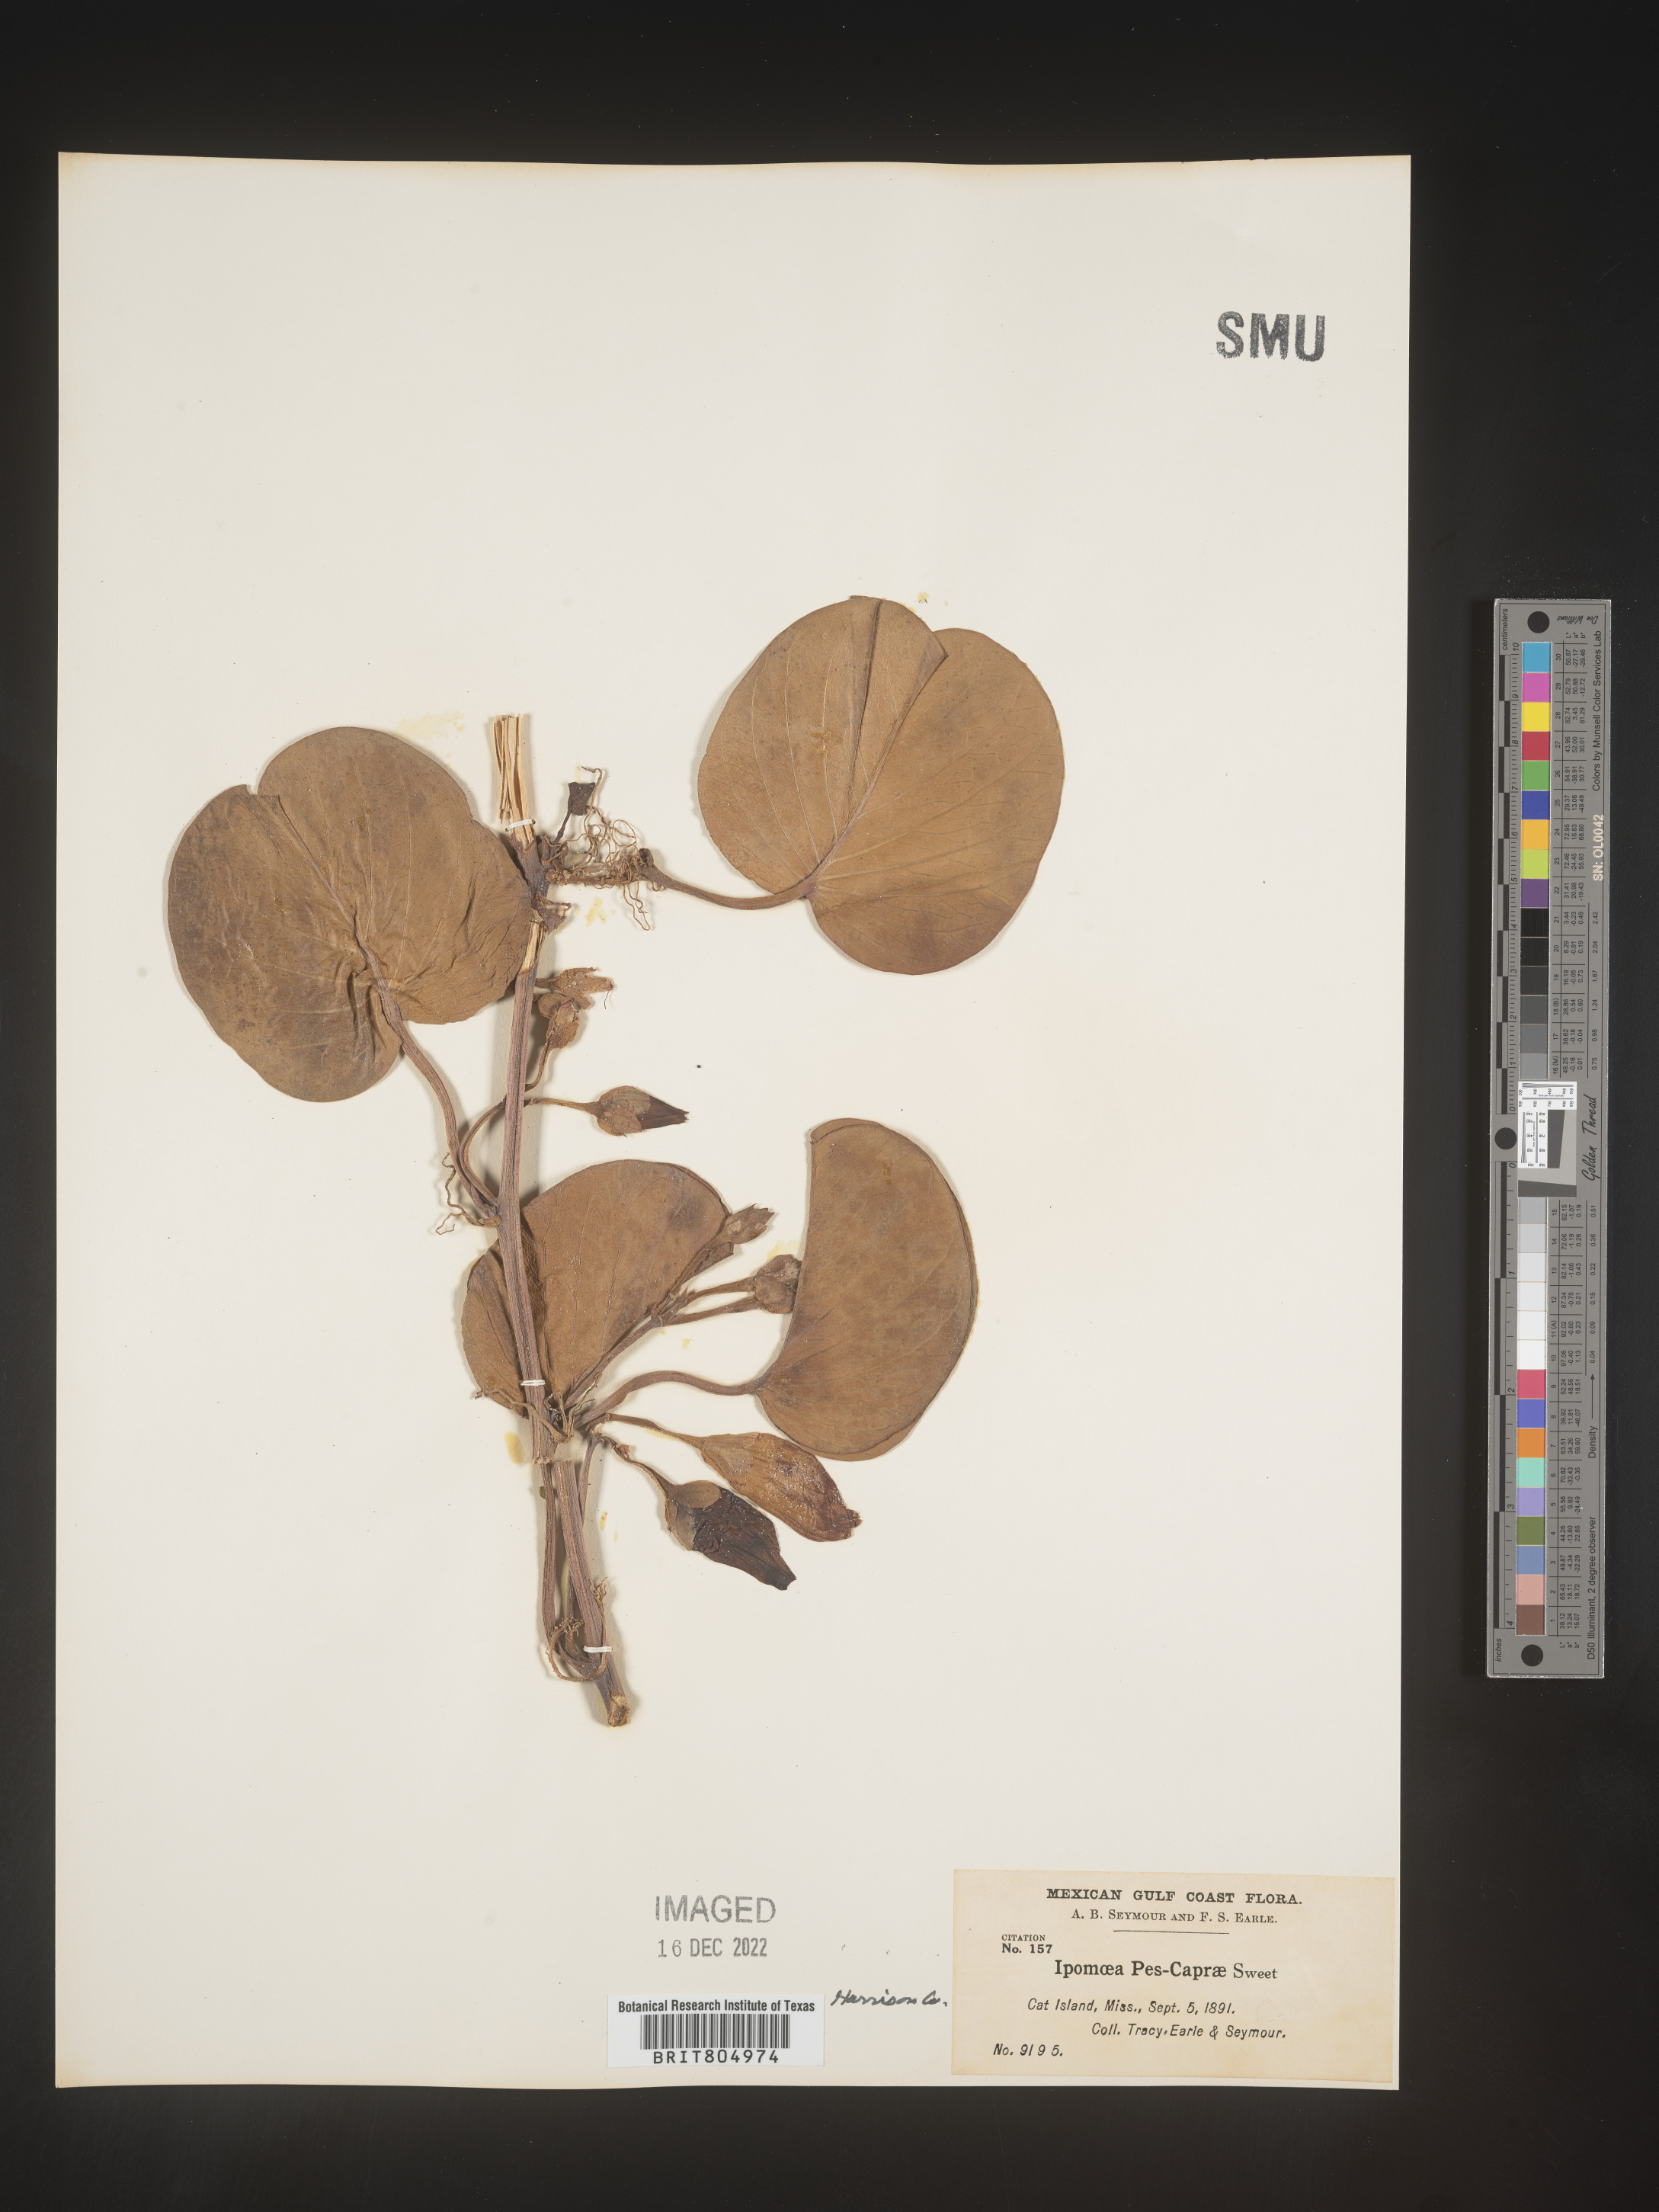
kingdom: Plantae
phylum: Tracheophyta
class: Magnoliopsida
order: Solanales
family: Convolvulaceae
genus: Ipomoea
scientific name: Ipomoea pes-caprae
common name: Beach morning glory
